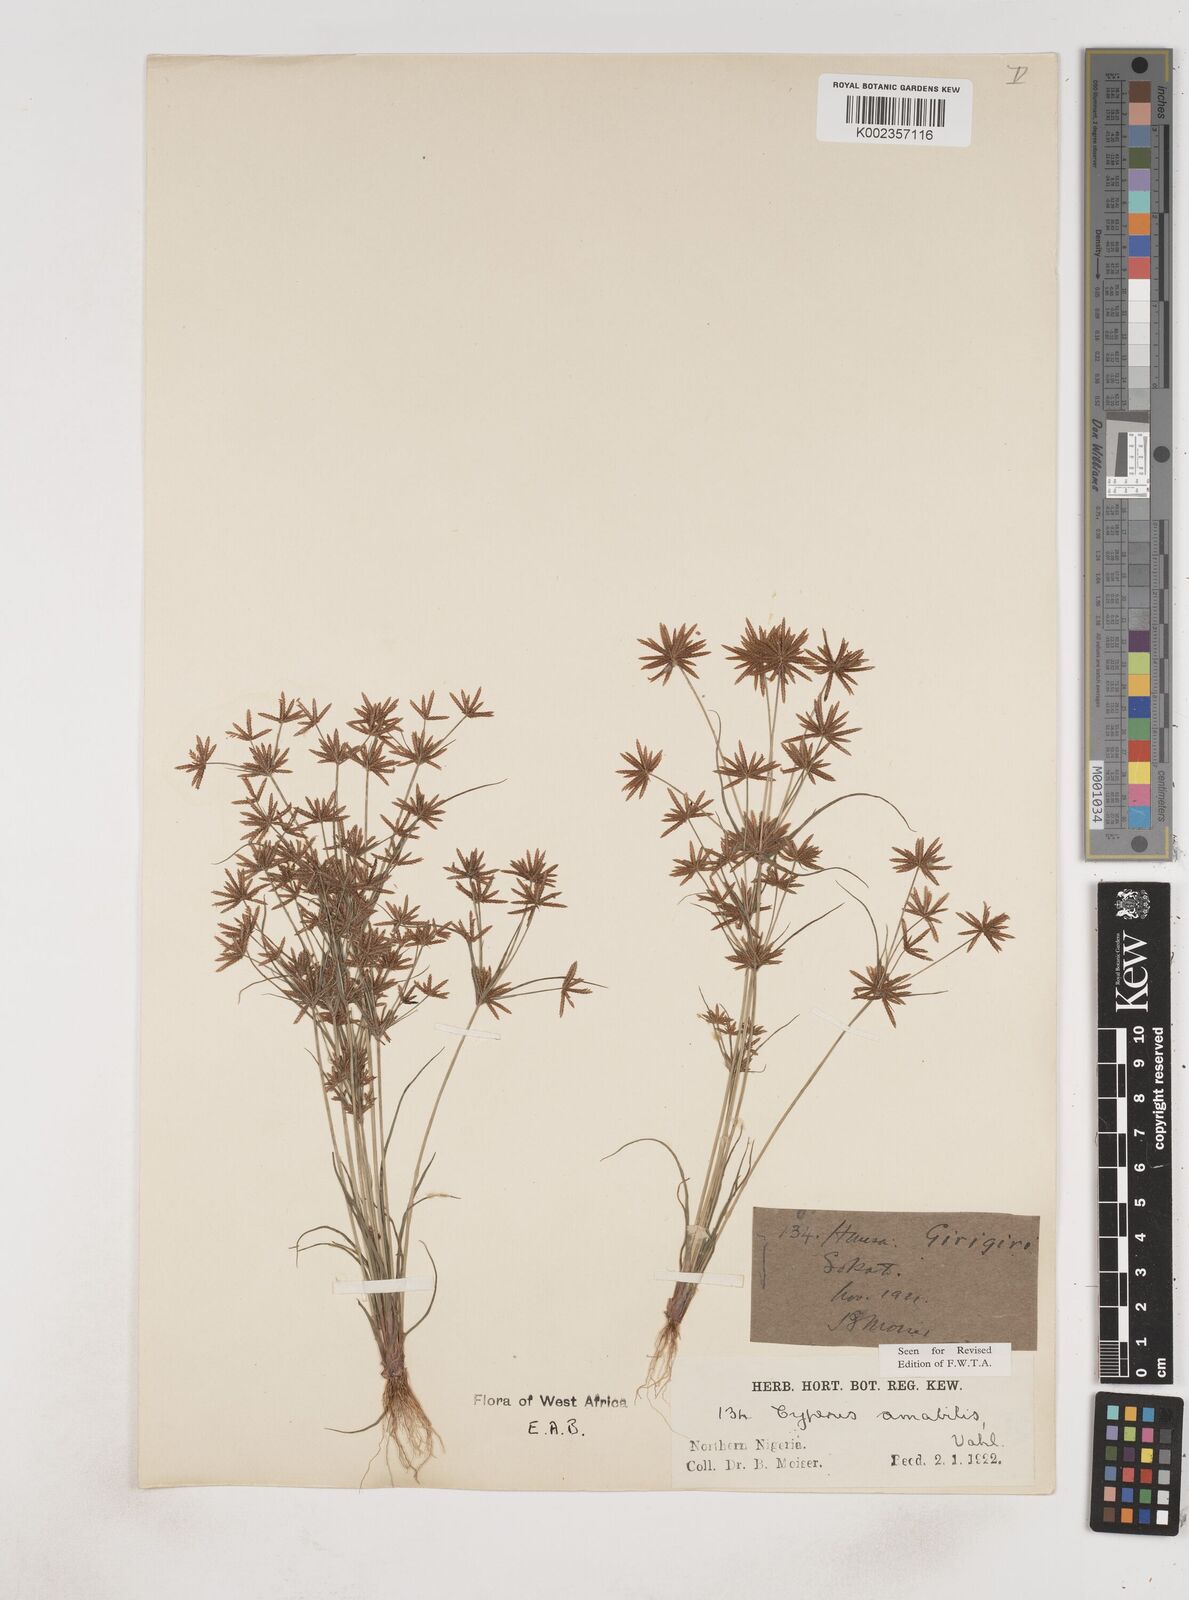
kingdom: Plantae
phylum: Tracheophyta
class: Liliopsida
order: Poales
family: Cyperaceae
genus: Cyperus
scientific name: Cyperus amabilis
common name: Foothill flat sedge
